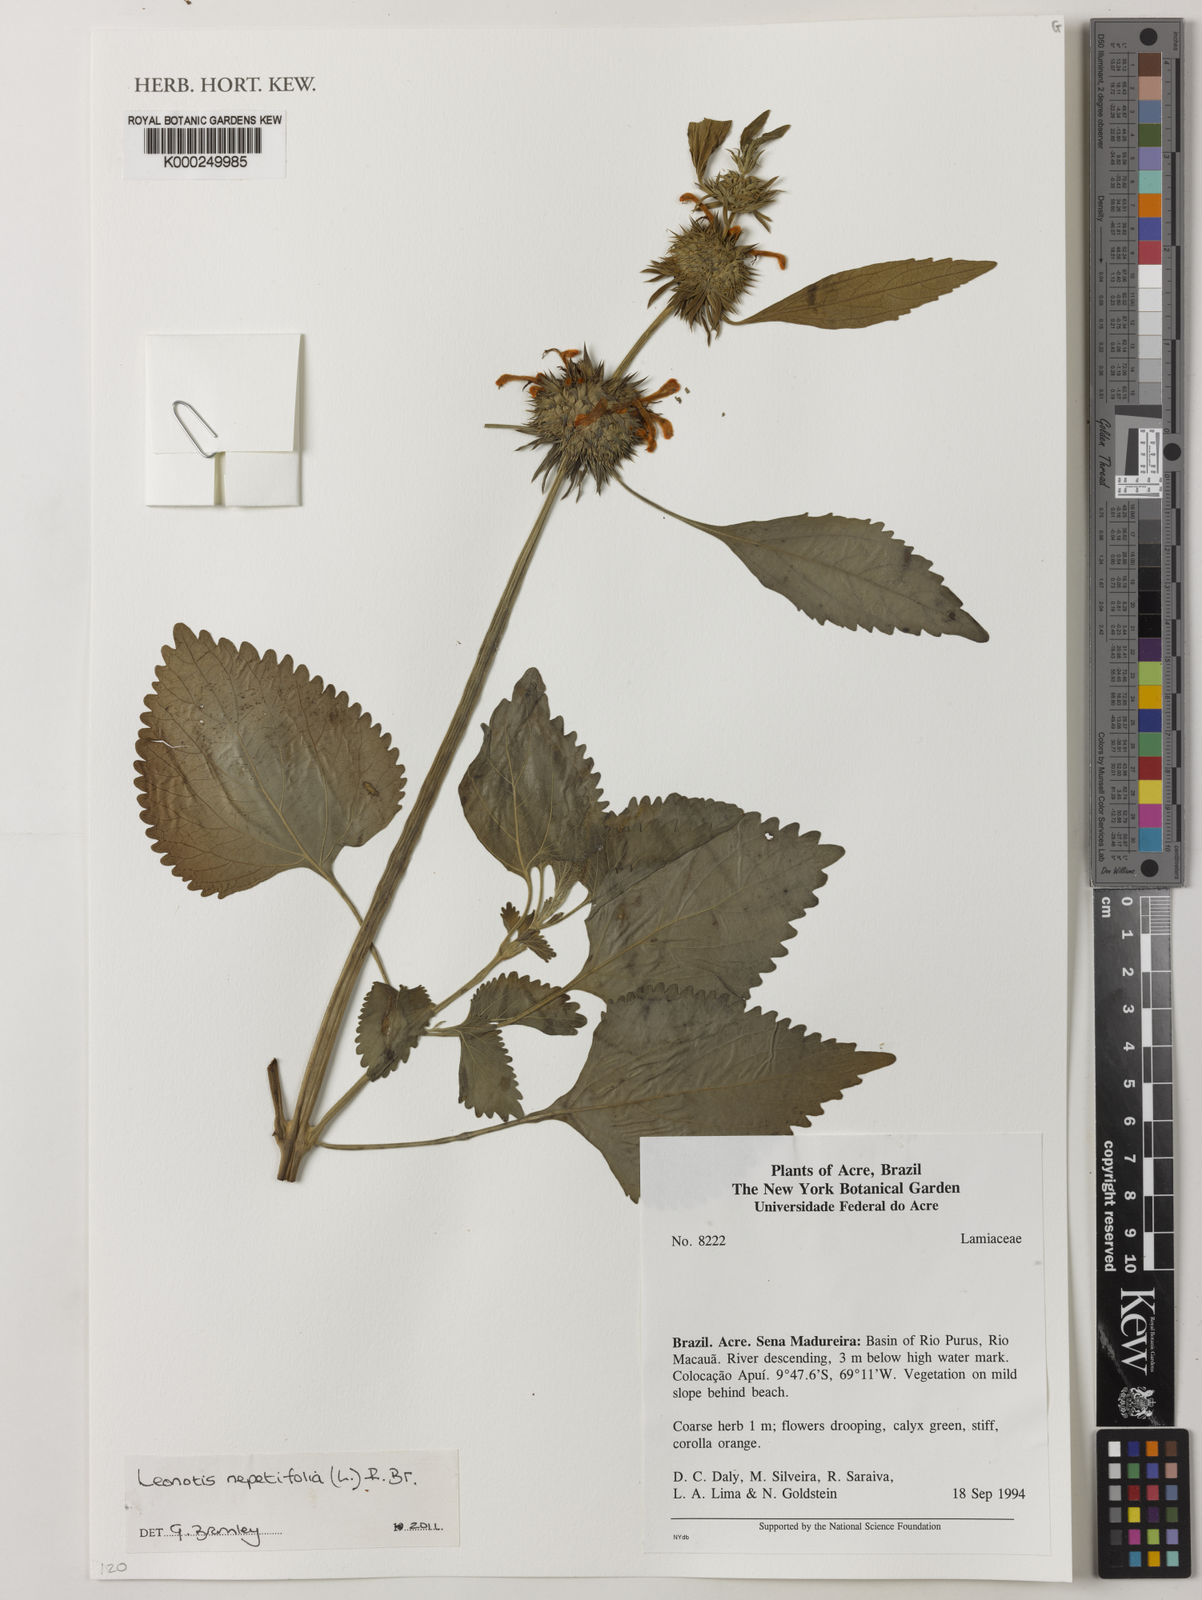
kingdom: Plantae
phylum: Tracheophyta
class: Magnoliopsida
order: Lamiales
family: Lamiaceae
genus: Leonotis
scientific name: Leonotis nepetifolia
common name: Christmas candlestick
